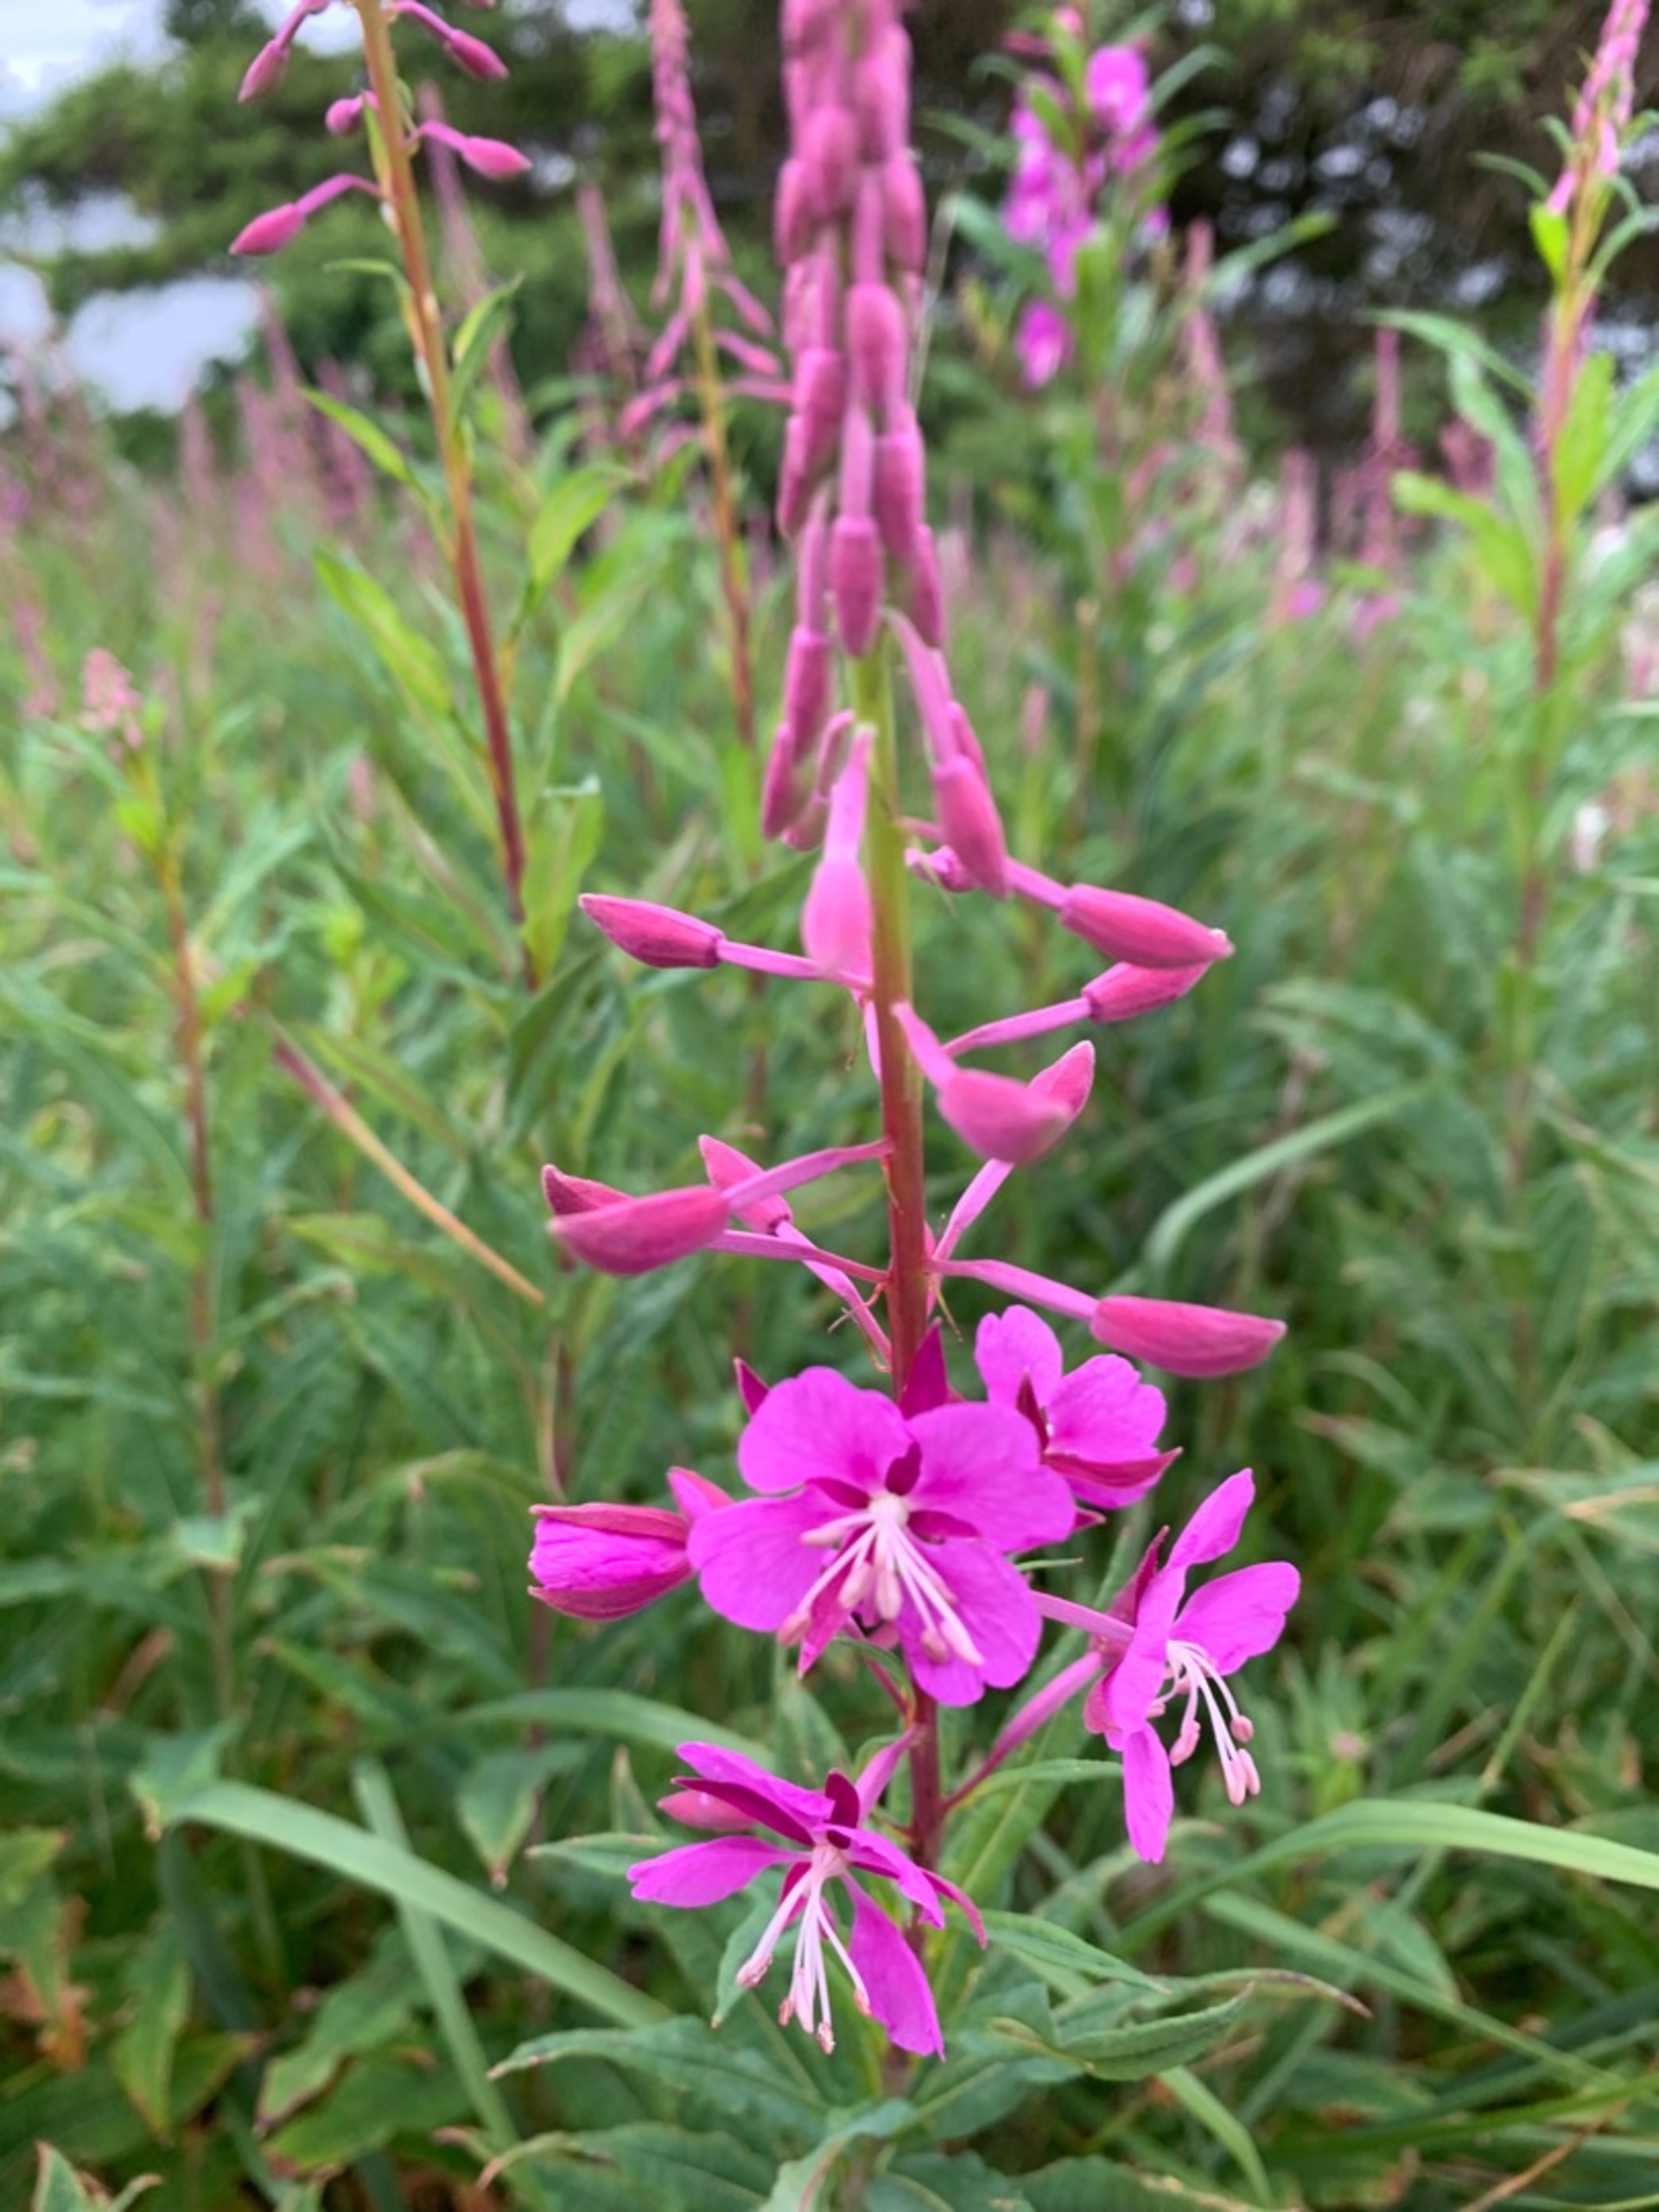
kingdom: Plantae
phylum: Tracheophyta
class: Magnoliopsida
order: Myrtales
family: Onagraceae
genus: Chamaenerion
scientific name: Chamaenerion angustifolium
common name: Gederams
